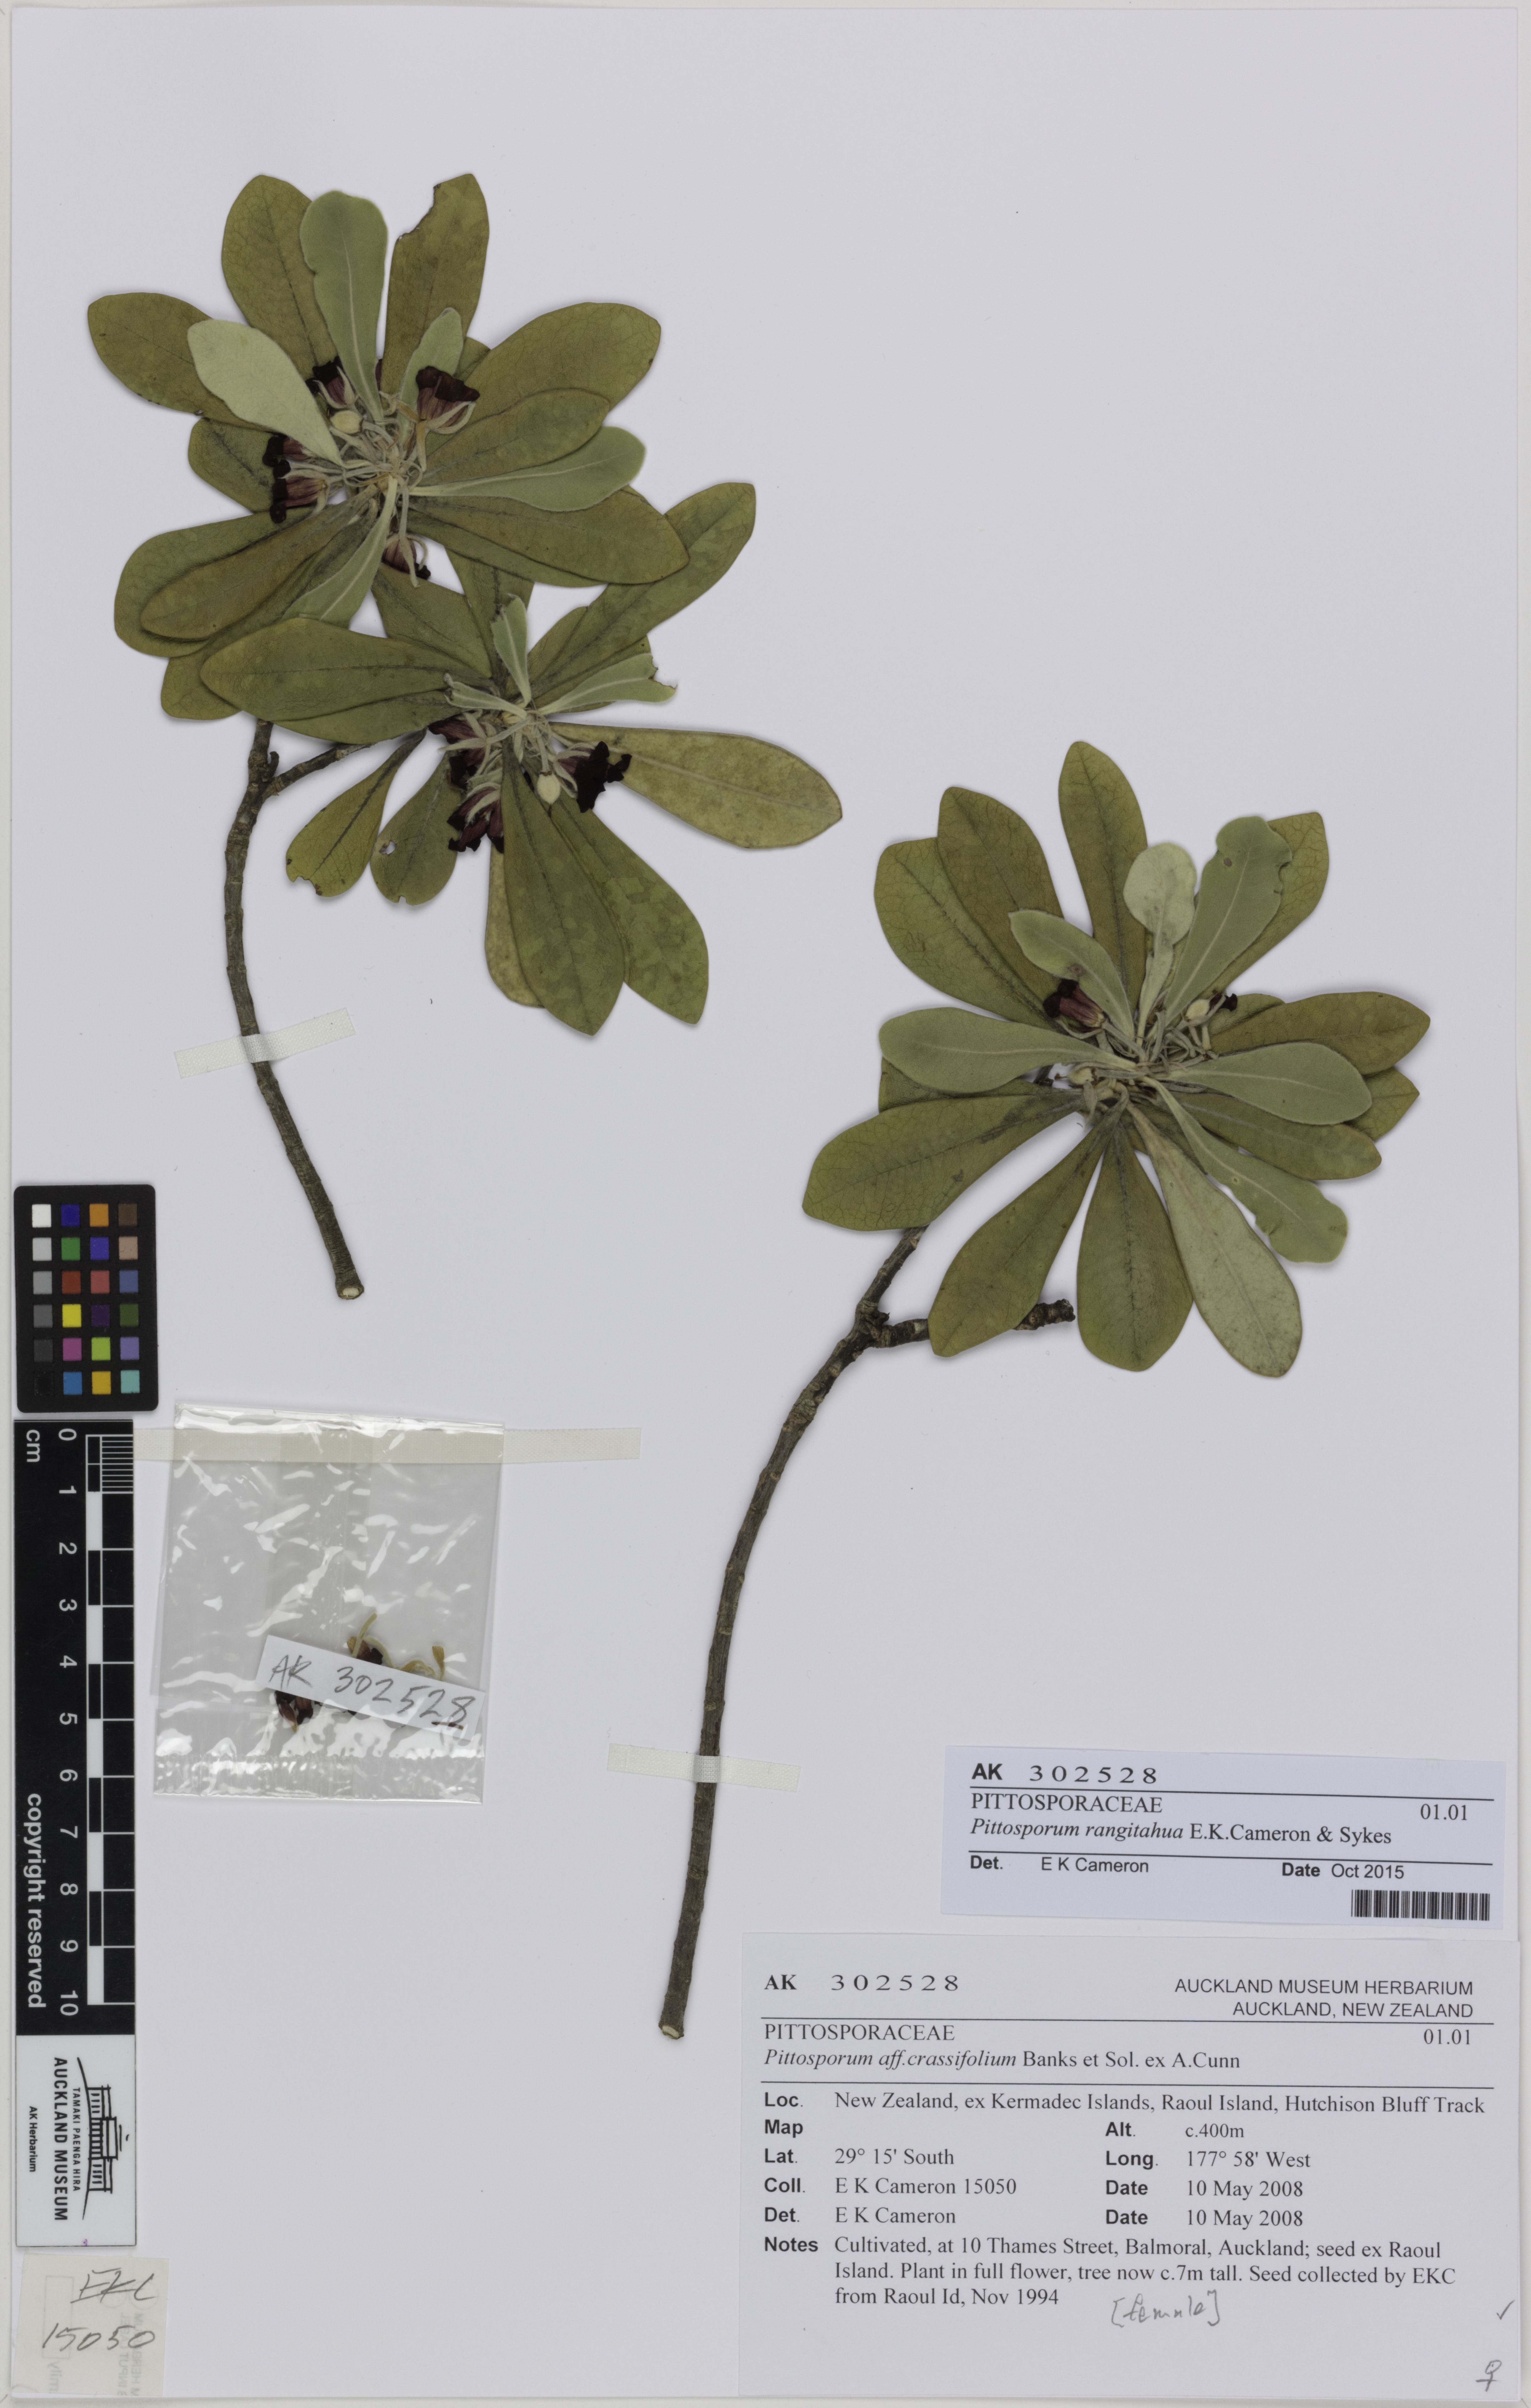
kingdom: Plantae
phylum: Tracheophyta
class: Magnoliopsida
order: Apiales
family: Pittosporaceae
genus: Pittosporum
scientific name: Pittosporum rangitahua
